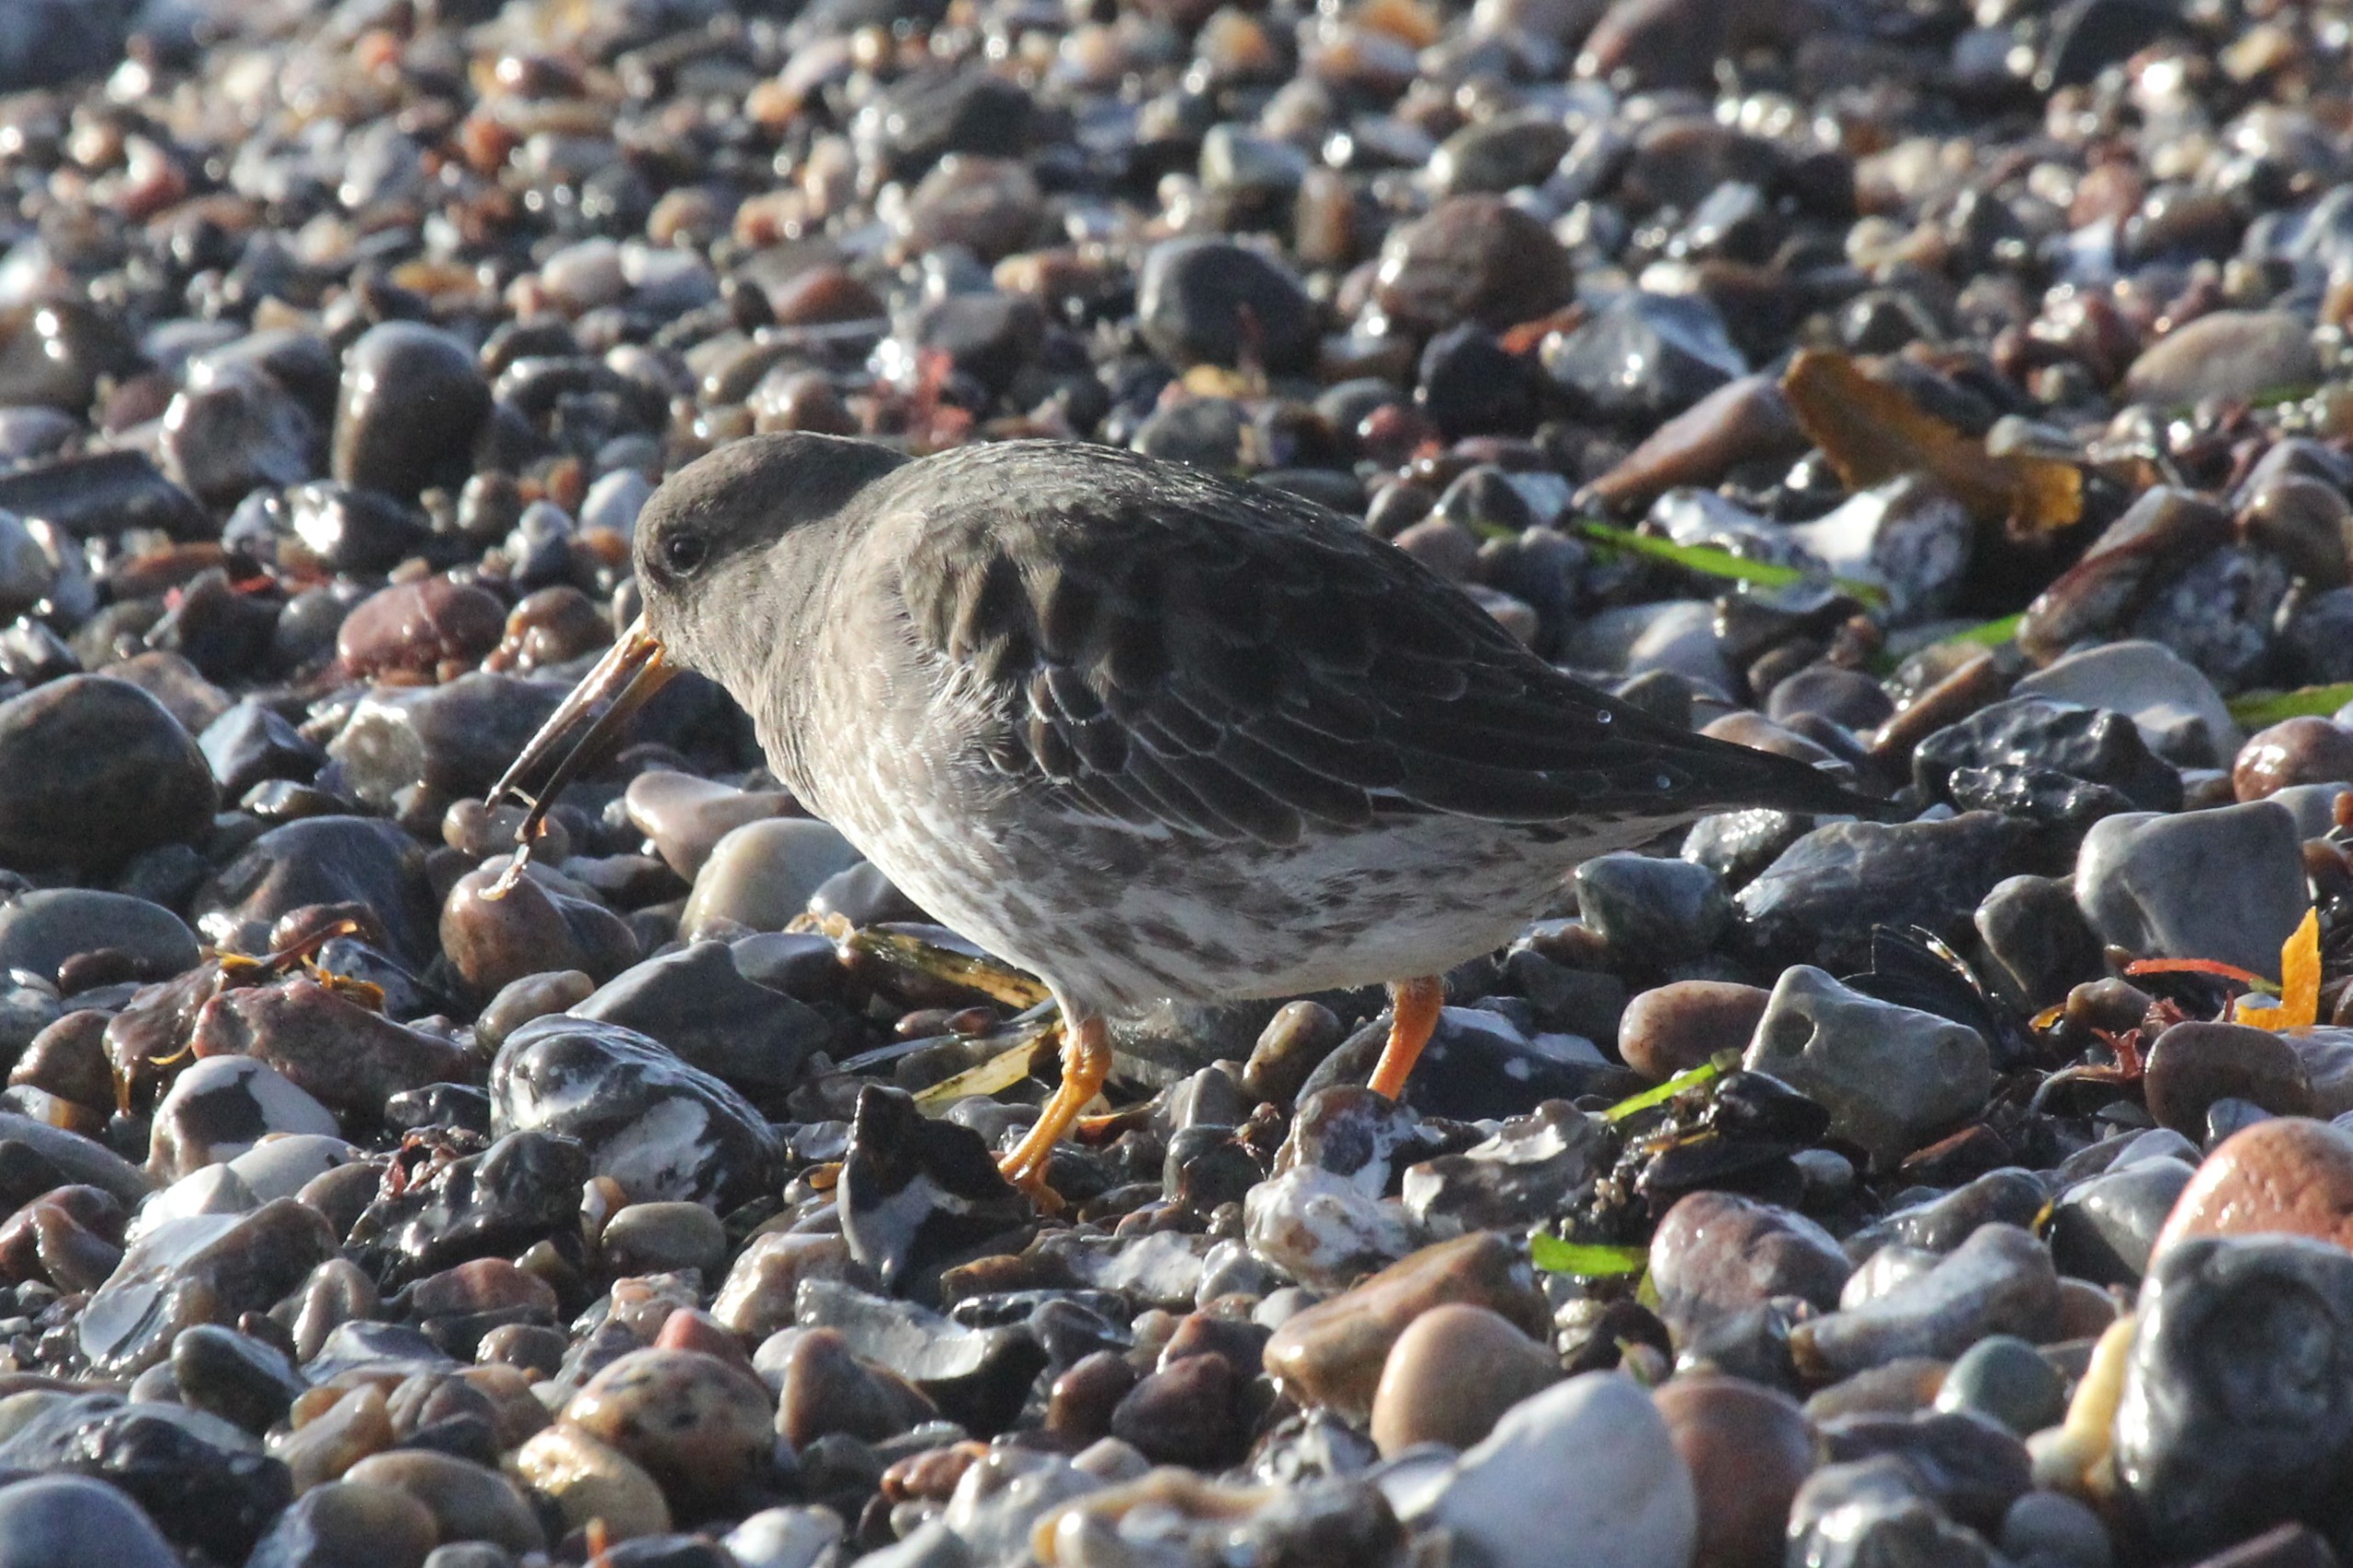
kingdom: Animalia
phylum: Chordata
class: Aves
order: Charadriiformes
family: Scolopacidae
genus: Calidris
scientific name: Calidris maritima
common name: Sortgrå ryle
